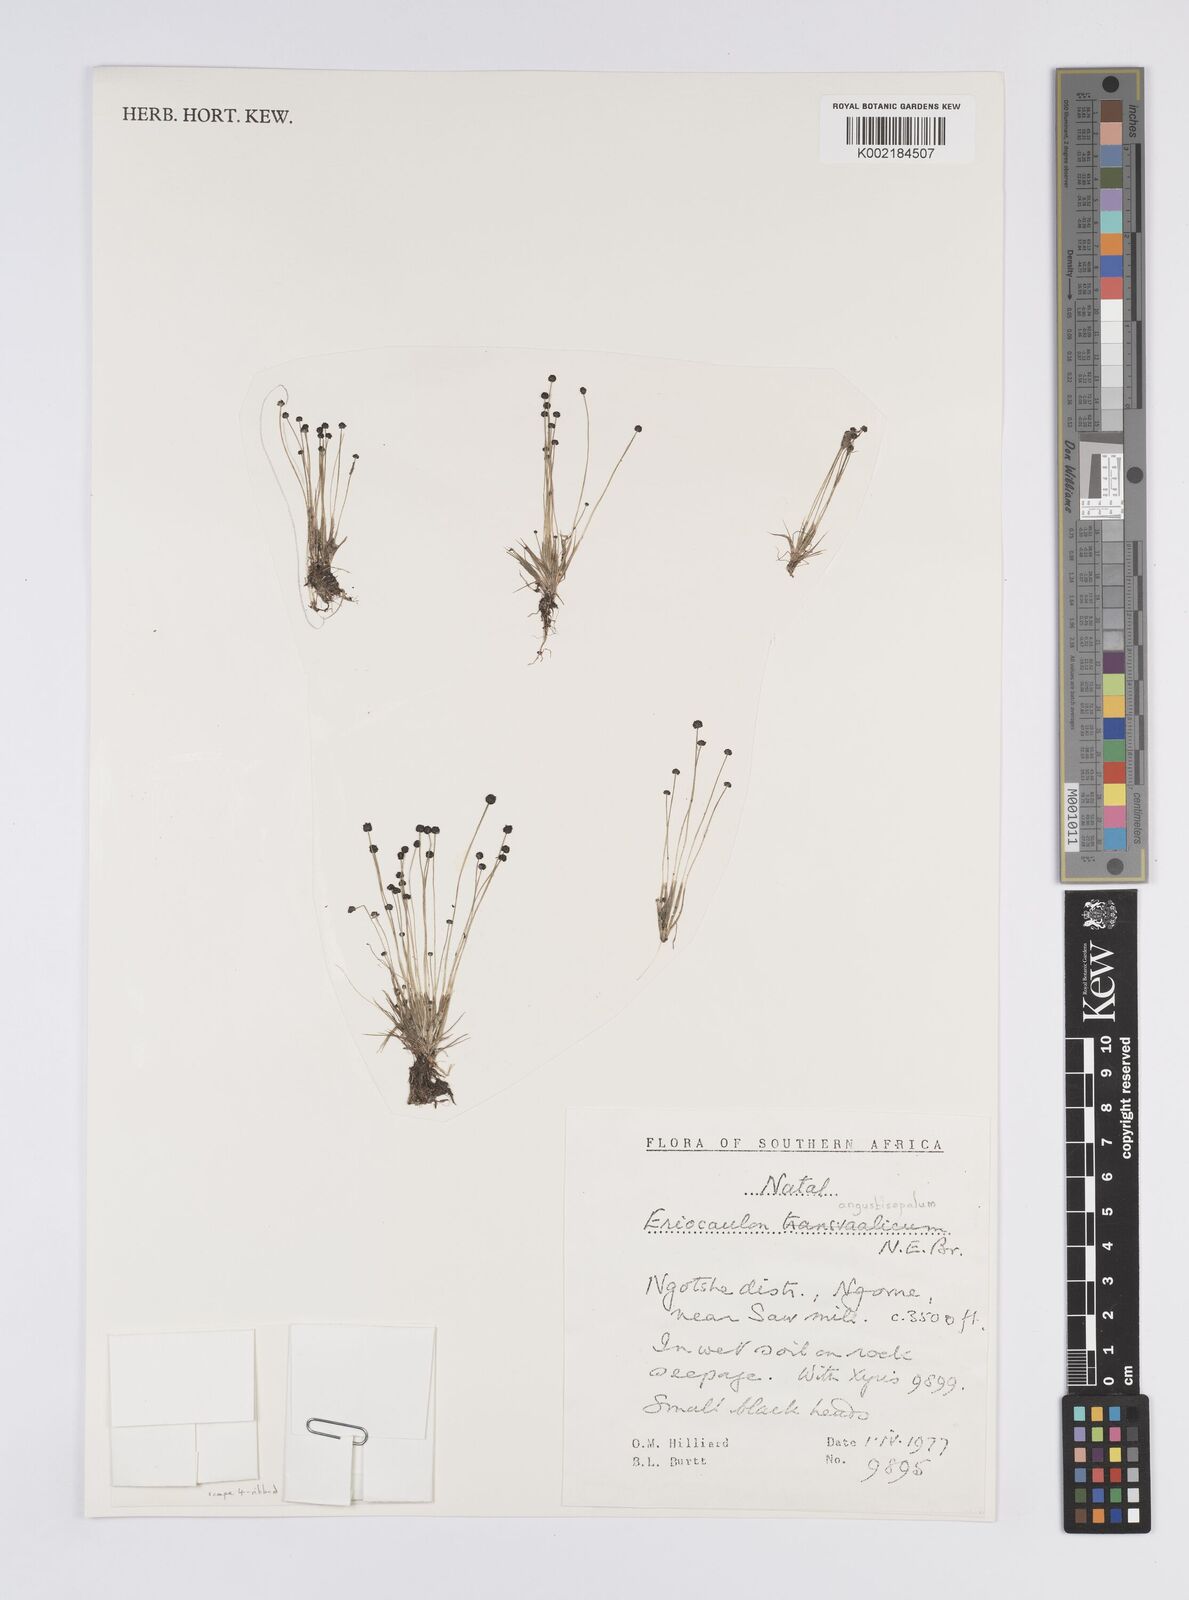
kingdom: Plantae
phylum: Tracheophyta
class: Liliopsida
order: Poales
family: Eriocaulaceae
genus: Eriocaulon
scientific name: Eriocaulon mutatum
